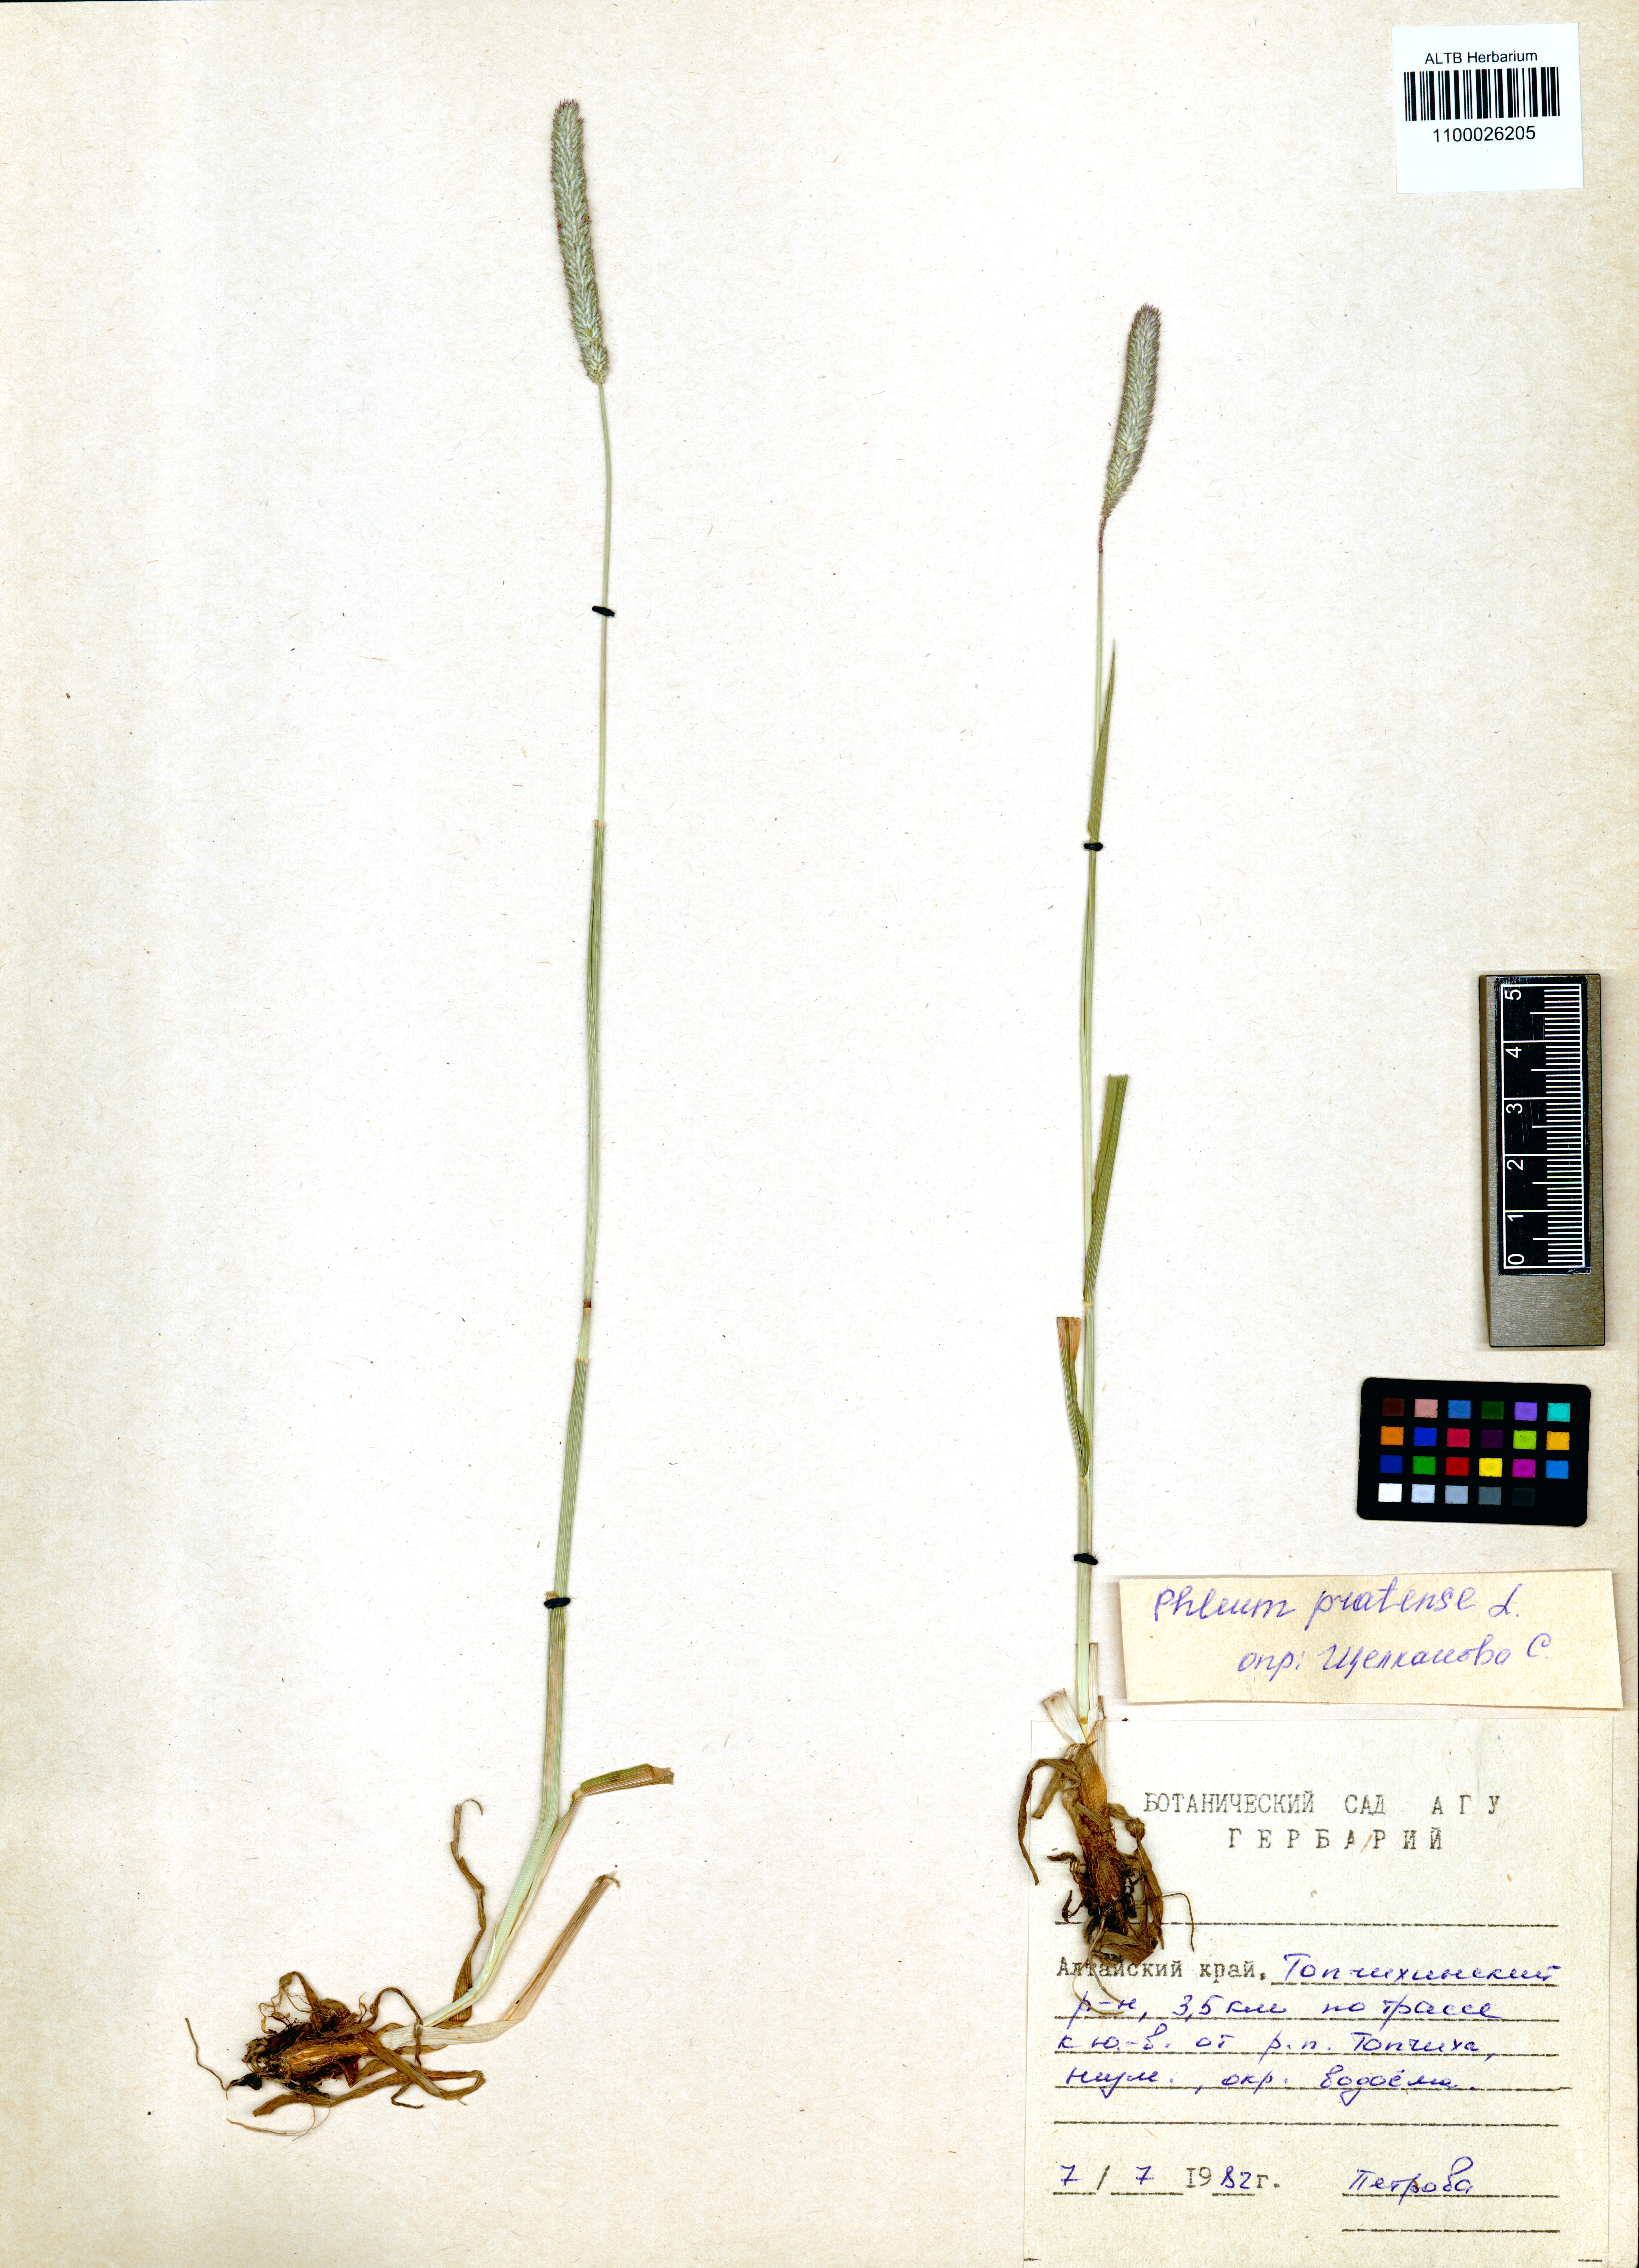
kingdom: Plantae
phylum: Tracheophyta
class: Liliopsida
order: Poales
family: Poaceae
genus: Phleum
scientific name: Phleum pratense
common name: Timothy grass
